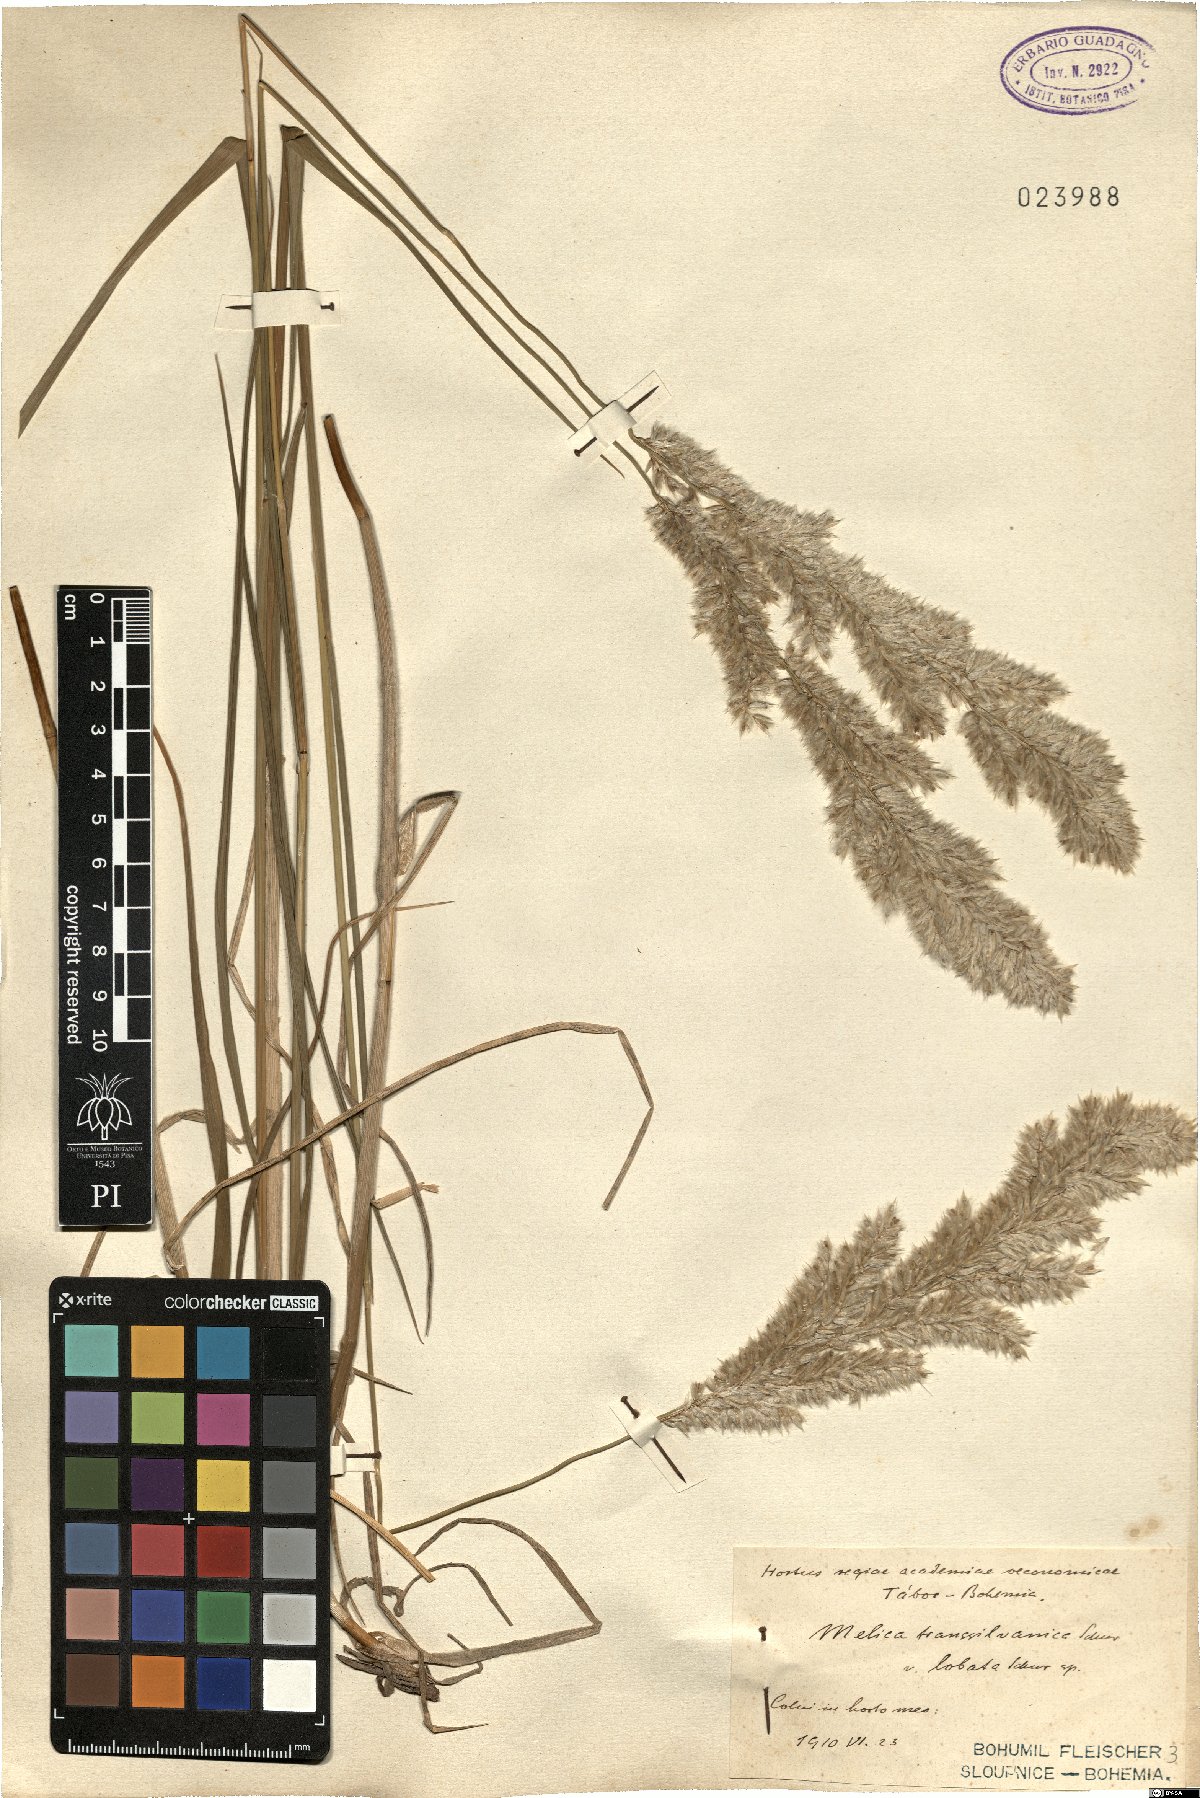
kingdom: Plantae
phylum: Tracheophyta
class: Liliopsida
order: Poales
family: Poaceae
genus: Melica
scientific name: Melica transsilvanica
